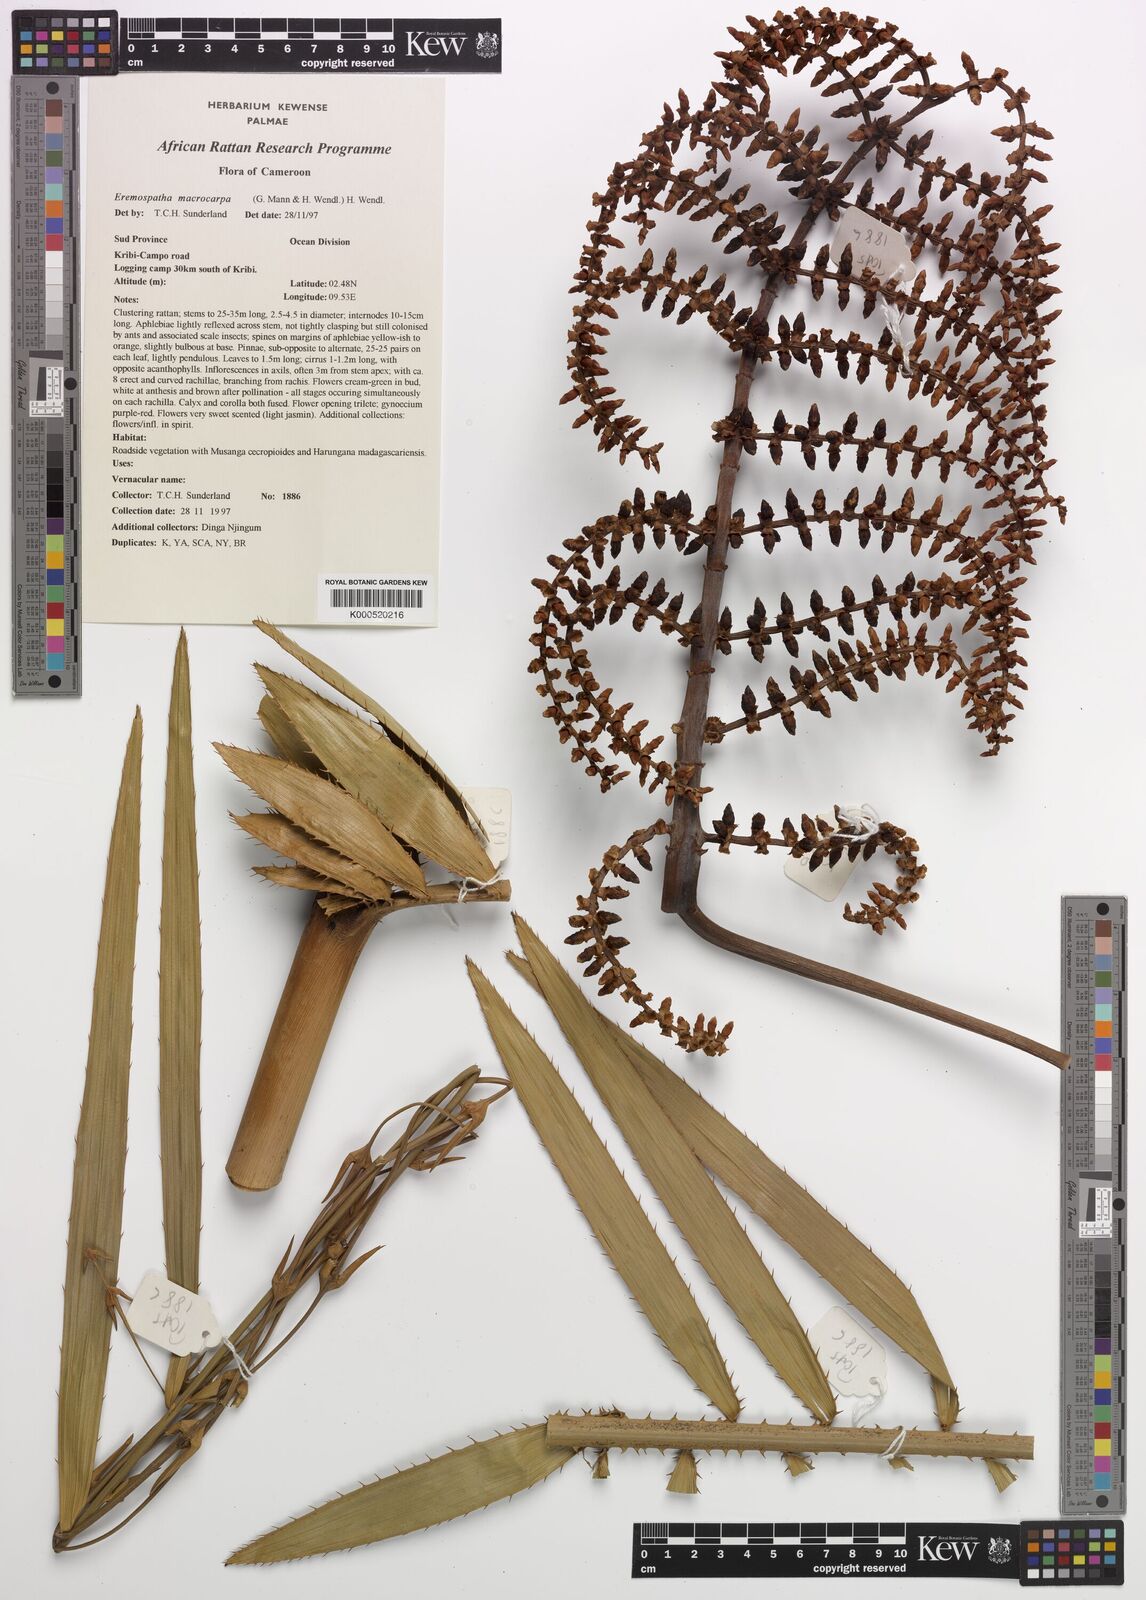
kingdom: Plantae
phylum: Tracheophyta
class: Liliopsida
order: Arecales
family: Arecaceae
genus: Eremospatha
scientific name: Eremospatha
